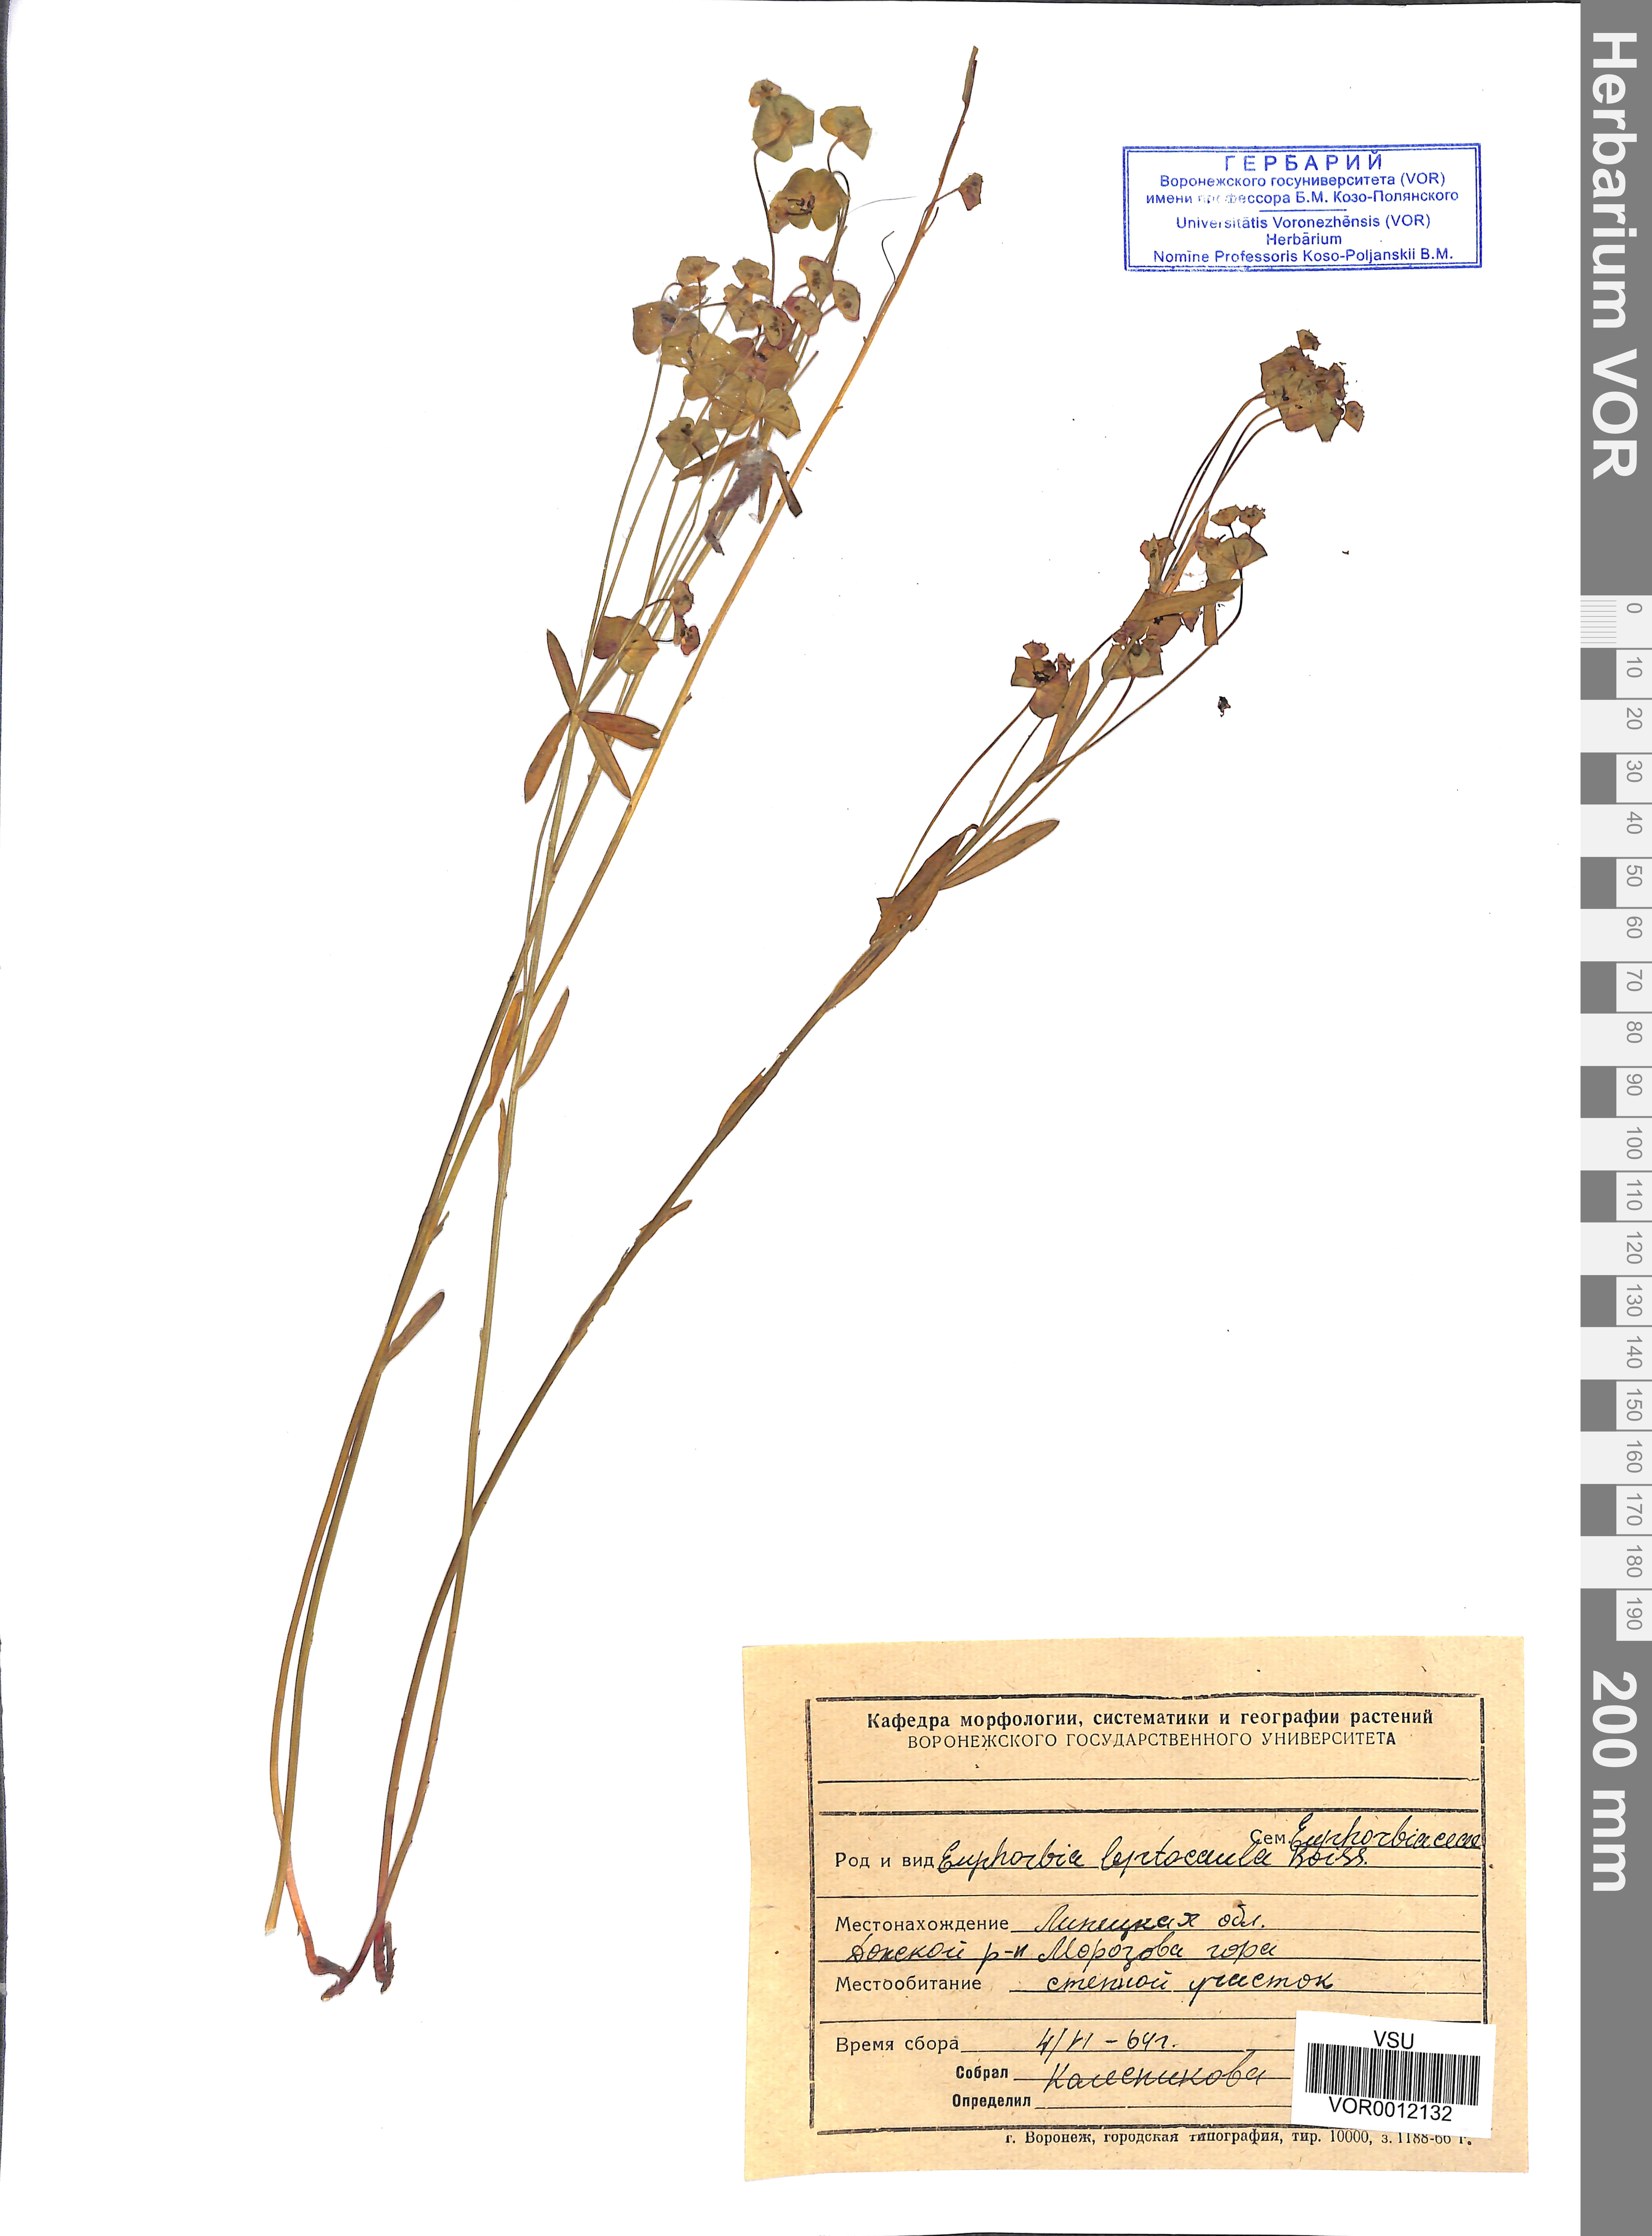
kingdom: Plantae
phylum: Tracheophyta
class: Magnoliopsida
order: Malpighiales
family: Euphorbiaceae
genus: Euphorbia
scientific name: Euphorbia leptocaula
